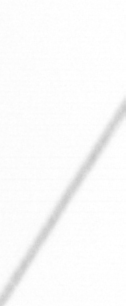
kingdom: Chromista
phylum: Ochrophyta
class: Bacillariophyceae
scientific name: Bacillariophyceae
